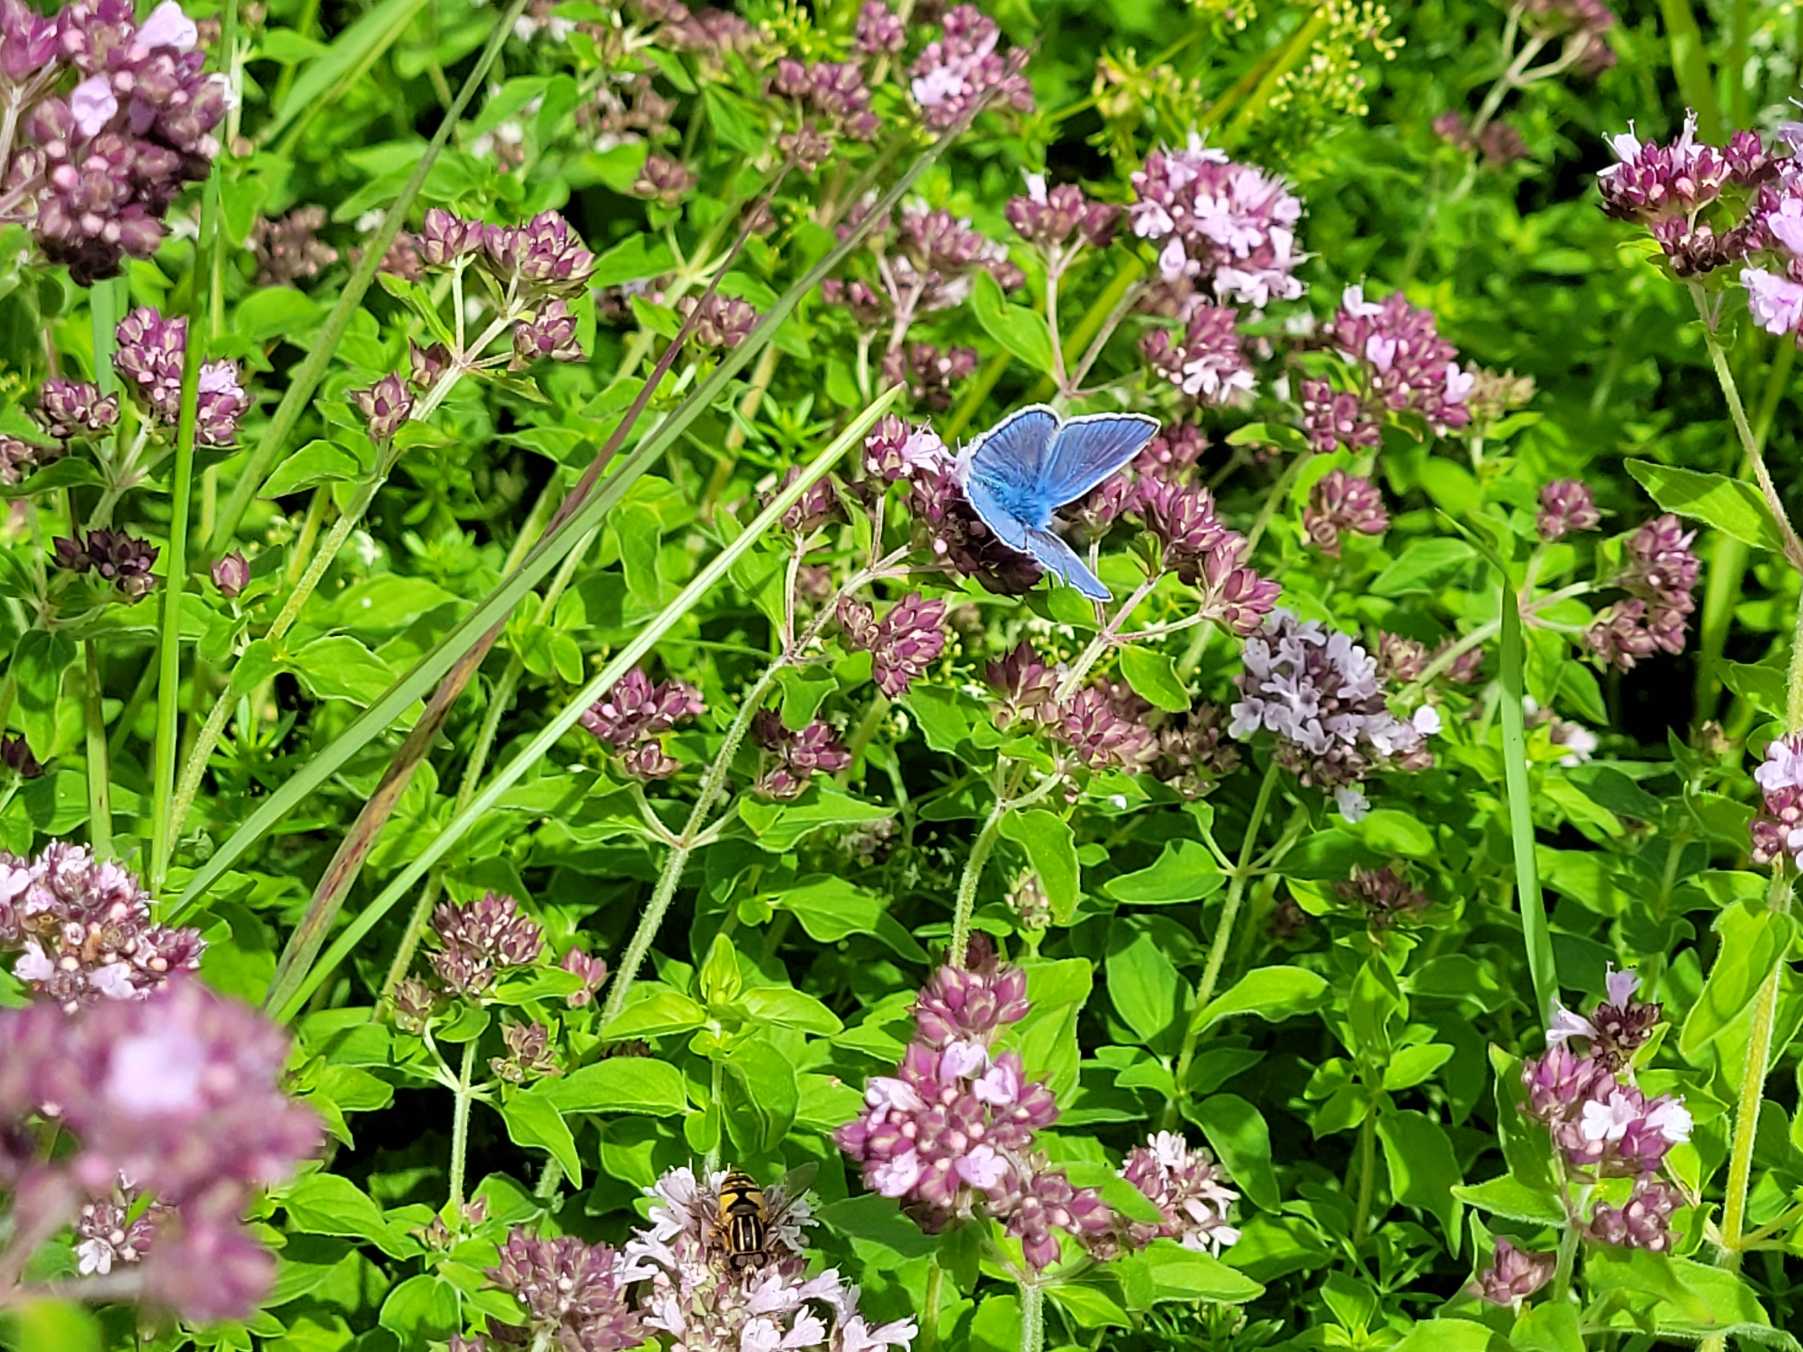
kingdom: Animalia
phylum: Arthropoda
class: Insecta
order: Lepidoptera
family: Lycaenidae
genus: Polyommatus
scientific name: Polyommatus icarus
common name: Almindelig blåfugl
